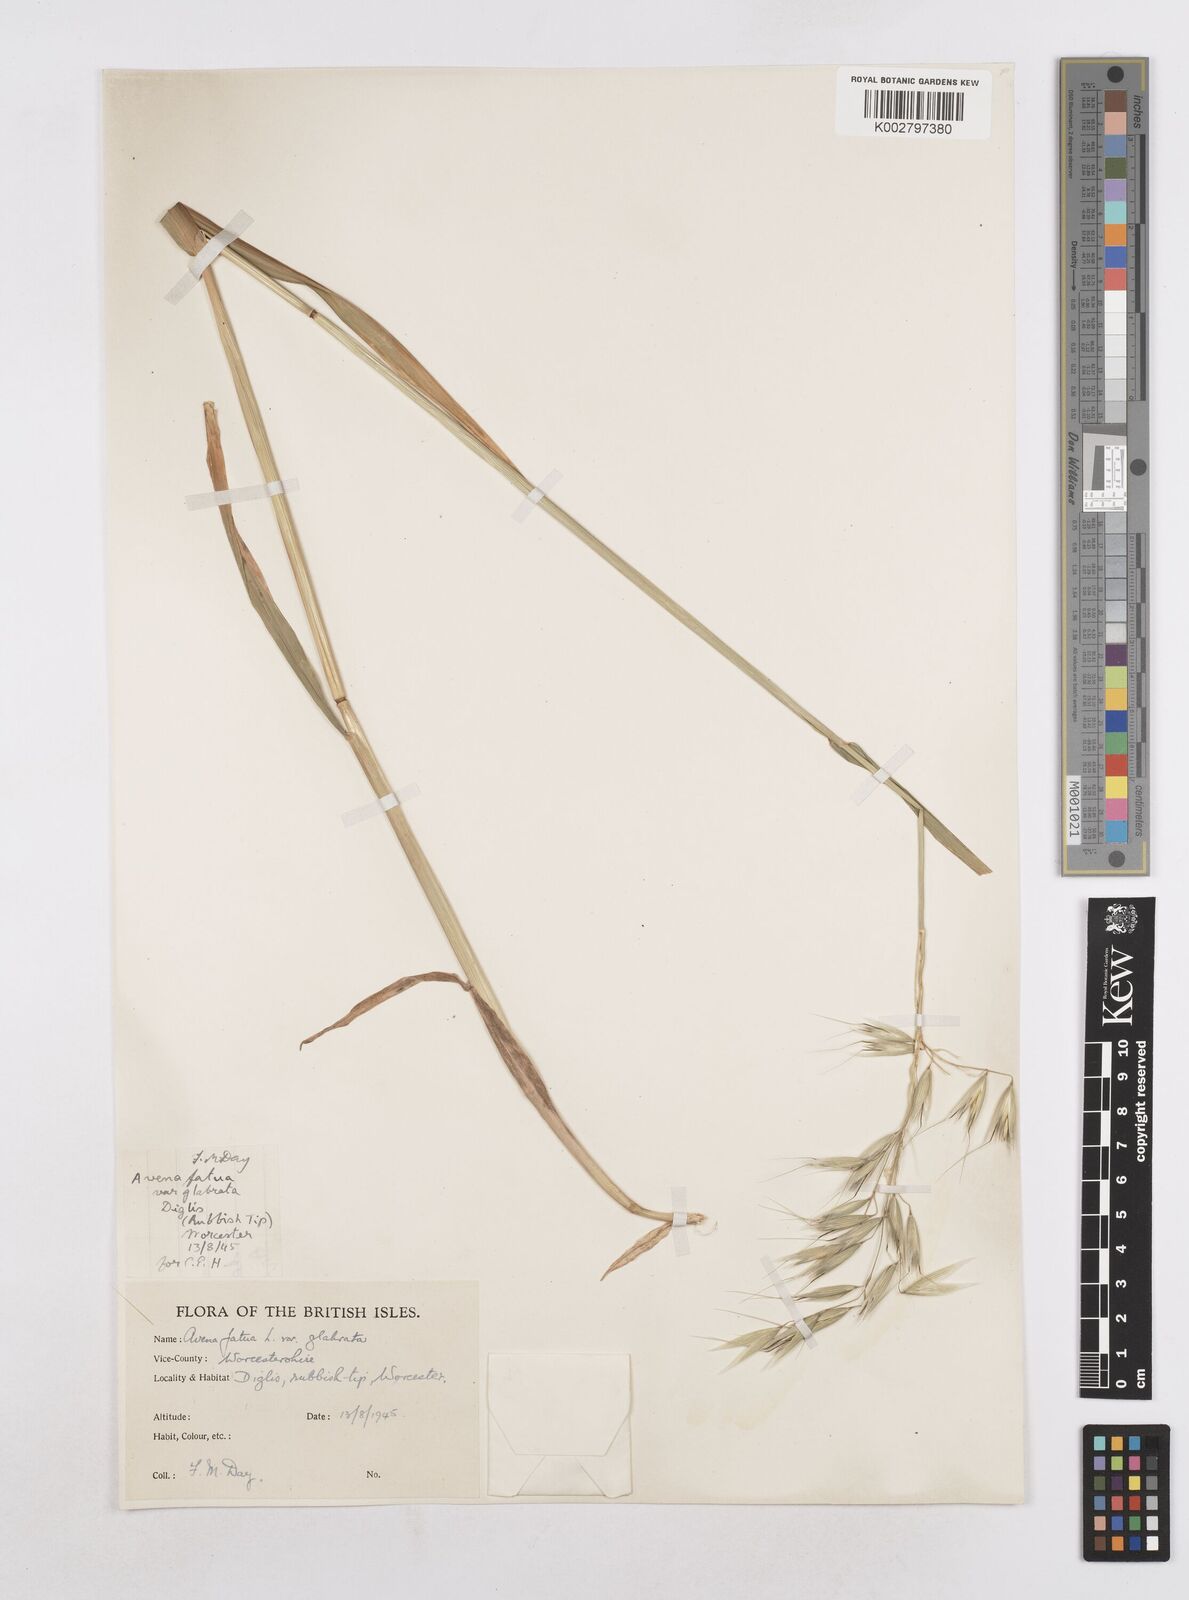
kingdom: Plantae
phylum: Tracheophyta
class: Liliopsida
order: Poales
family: Poaceae
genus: Avena
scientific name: Avena fatua
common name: Wild oat
